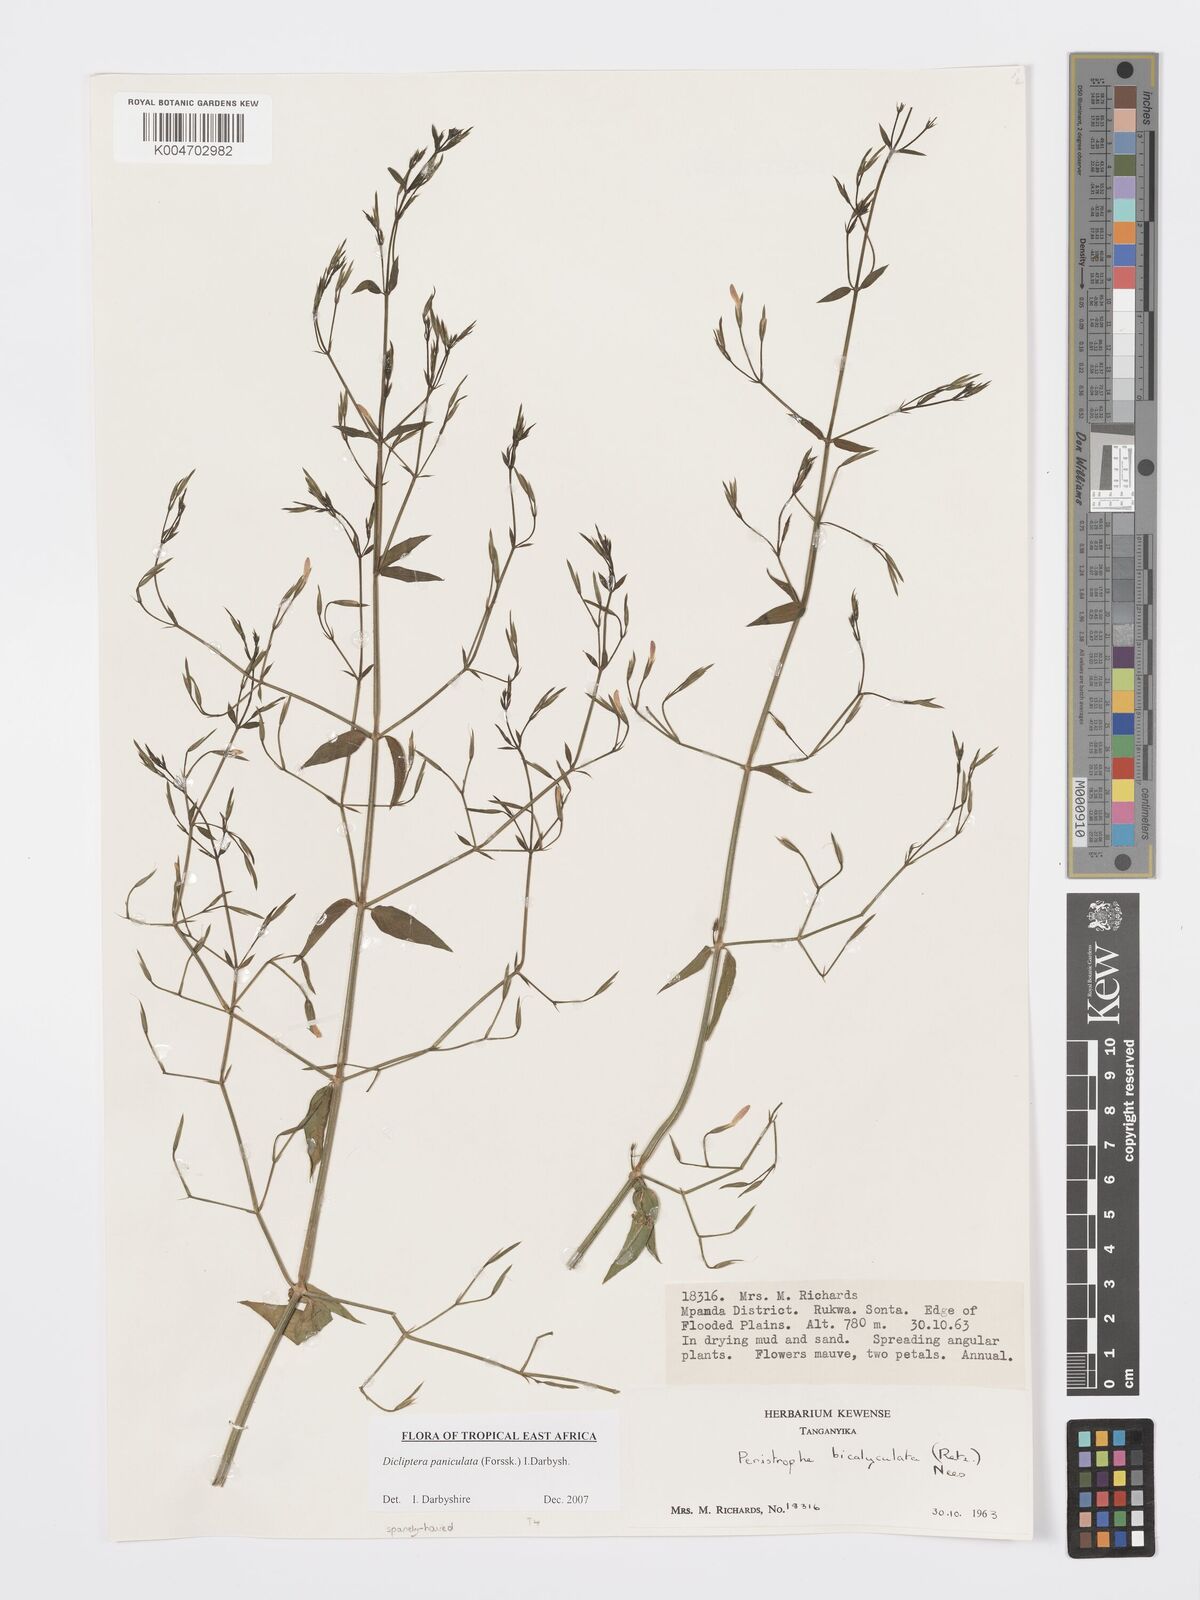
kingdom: Plantae
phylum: Tracheophyta
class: Magnoliopsida
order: Lamiales
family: Acanthaceae
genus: Dicliptera
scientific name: Dicliptera paniculata
